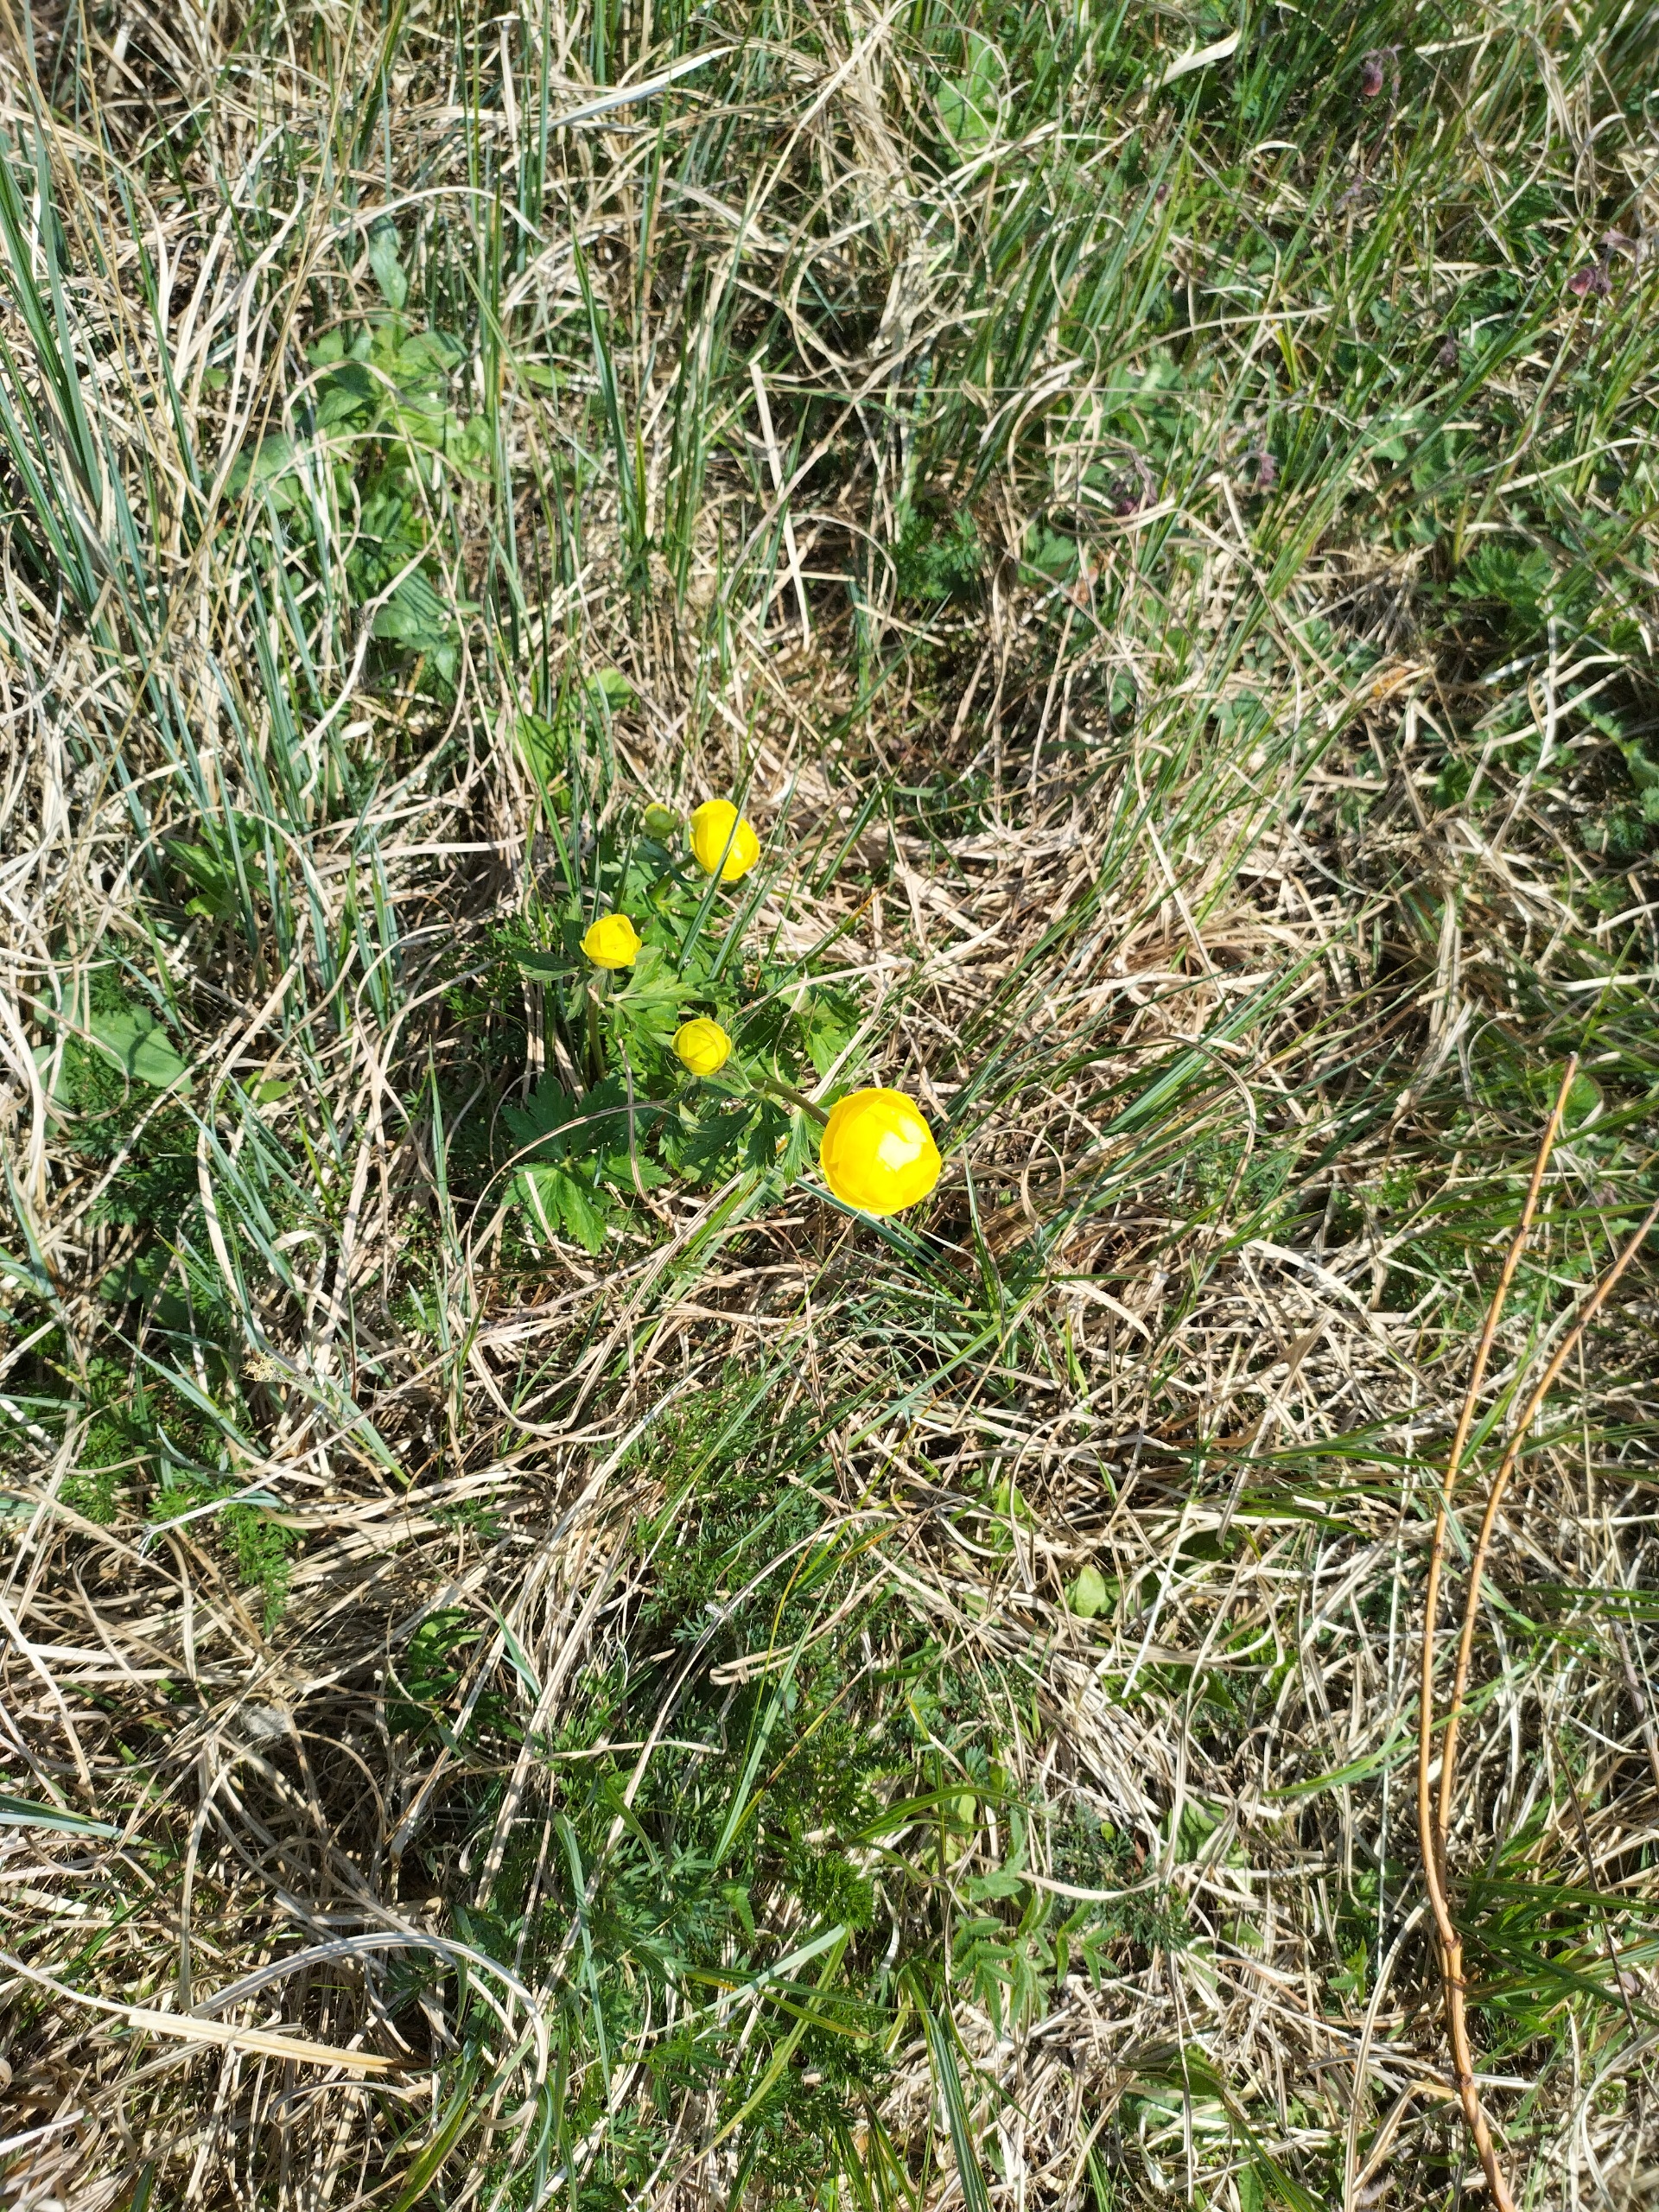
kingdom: Plantae
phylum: Tracheophyta
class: Magnoliopsida
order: Ranunculales
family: Ranunculaceae
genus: Trollius
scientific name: Trollius europaeus
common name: Engblomme
